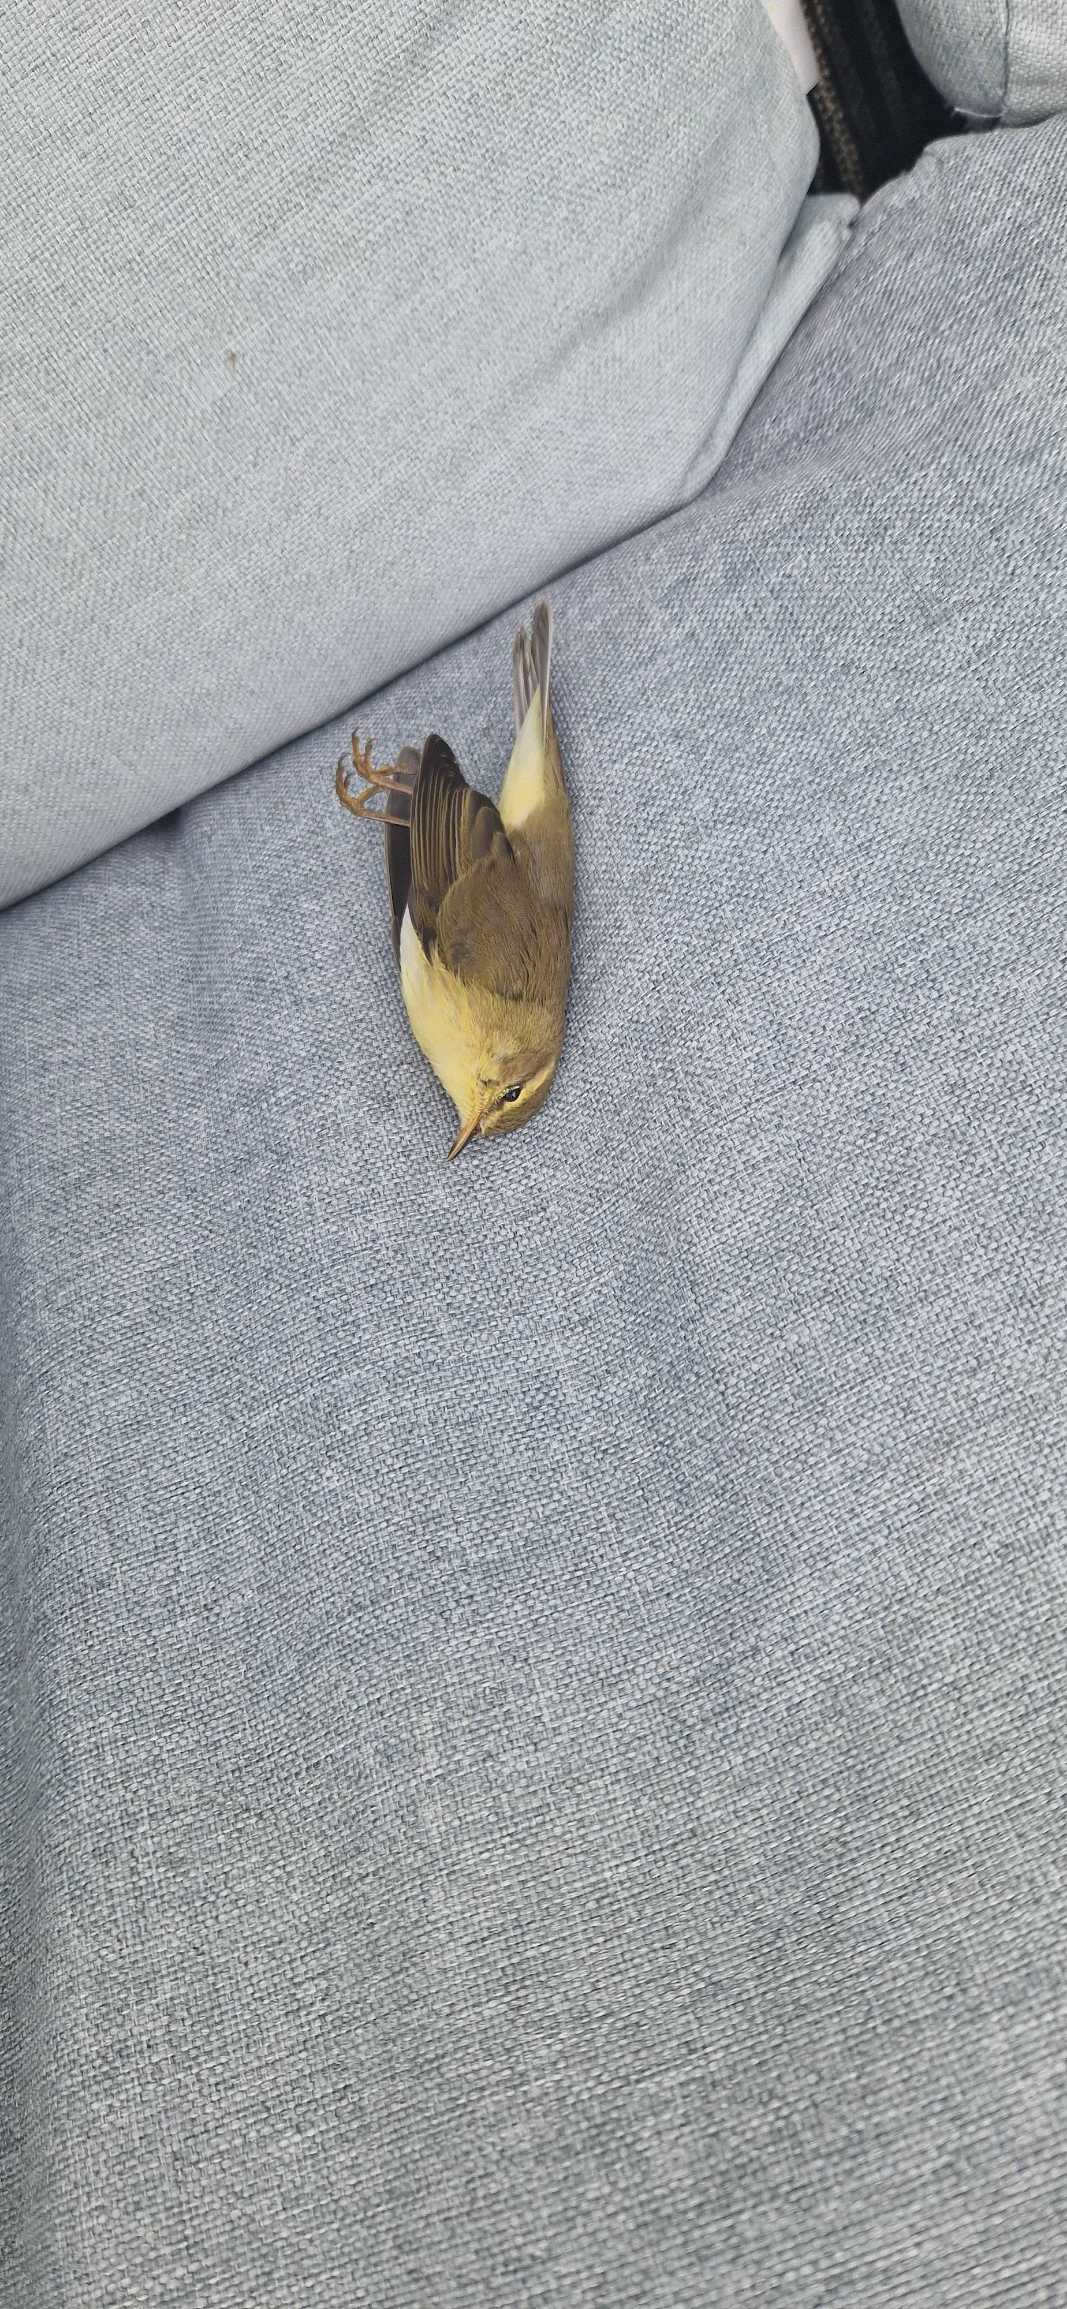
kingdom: Animalia
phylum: Chordata
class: Aves
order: Passeriformes
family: Phylloscopidae
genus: Phylloscopus
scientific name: Phylloscopus trochilus
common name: Løvsanger
